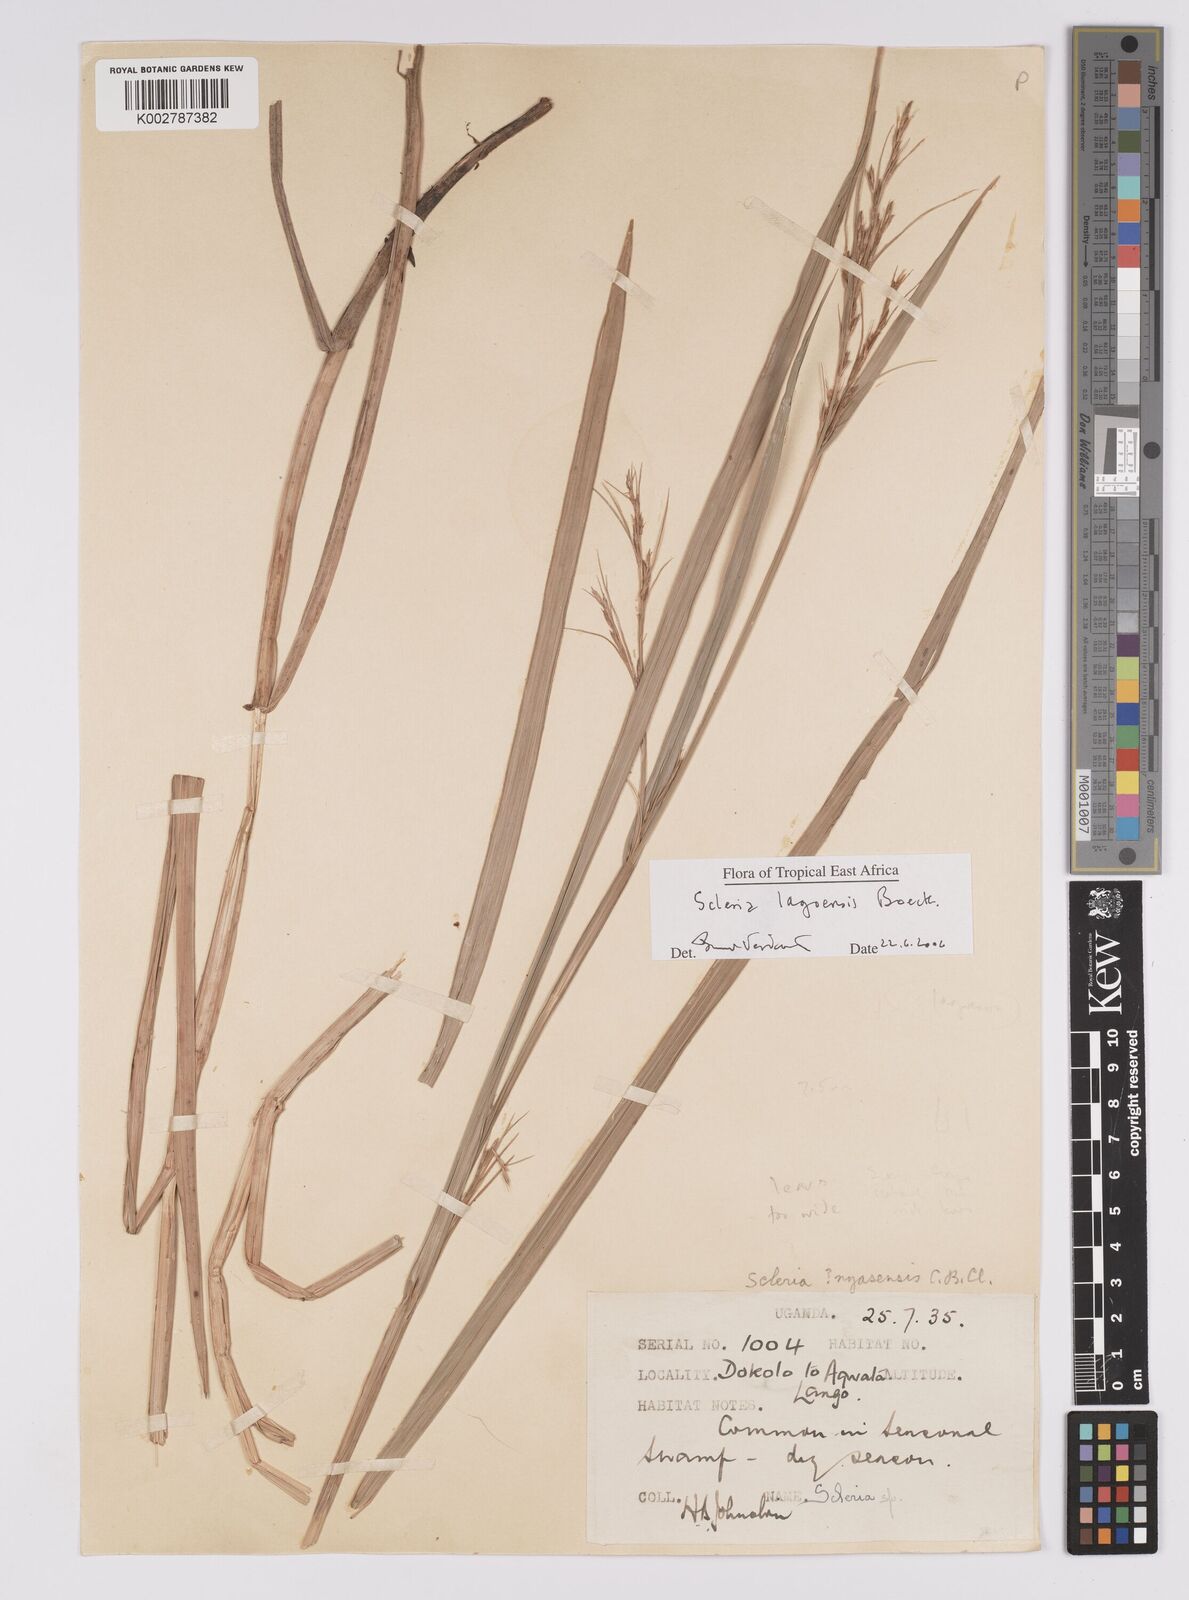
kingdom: Plantae
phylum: Tracheophyta
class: Liliopsida
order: Poales
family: Cyperaceae
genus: Scleria
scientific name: Scleria lagoensis
